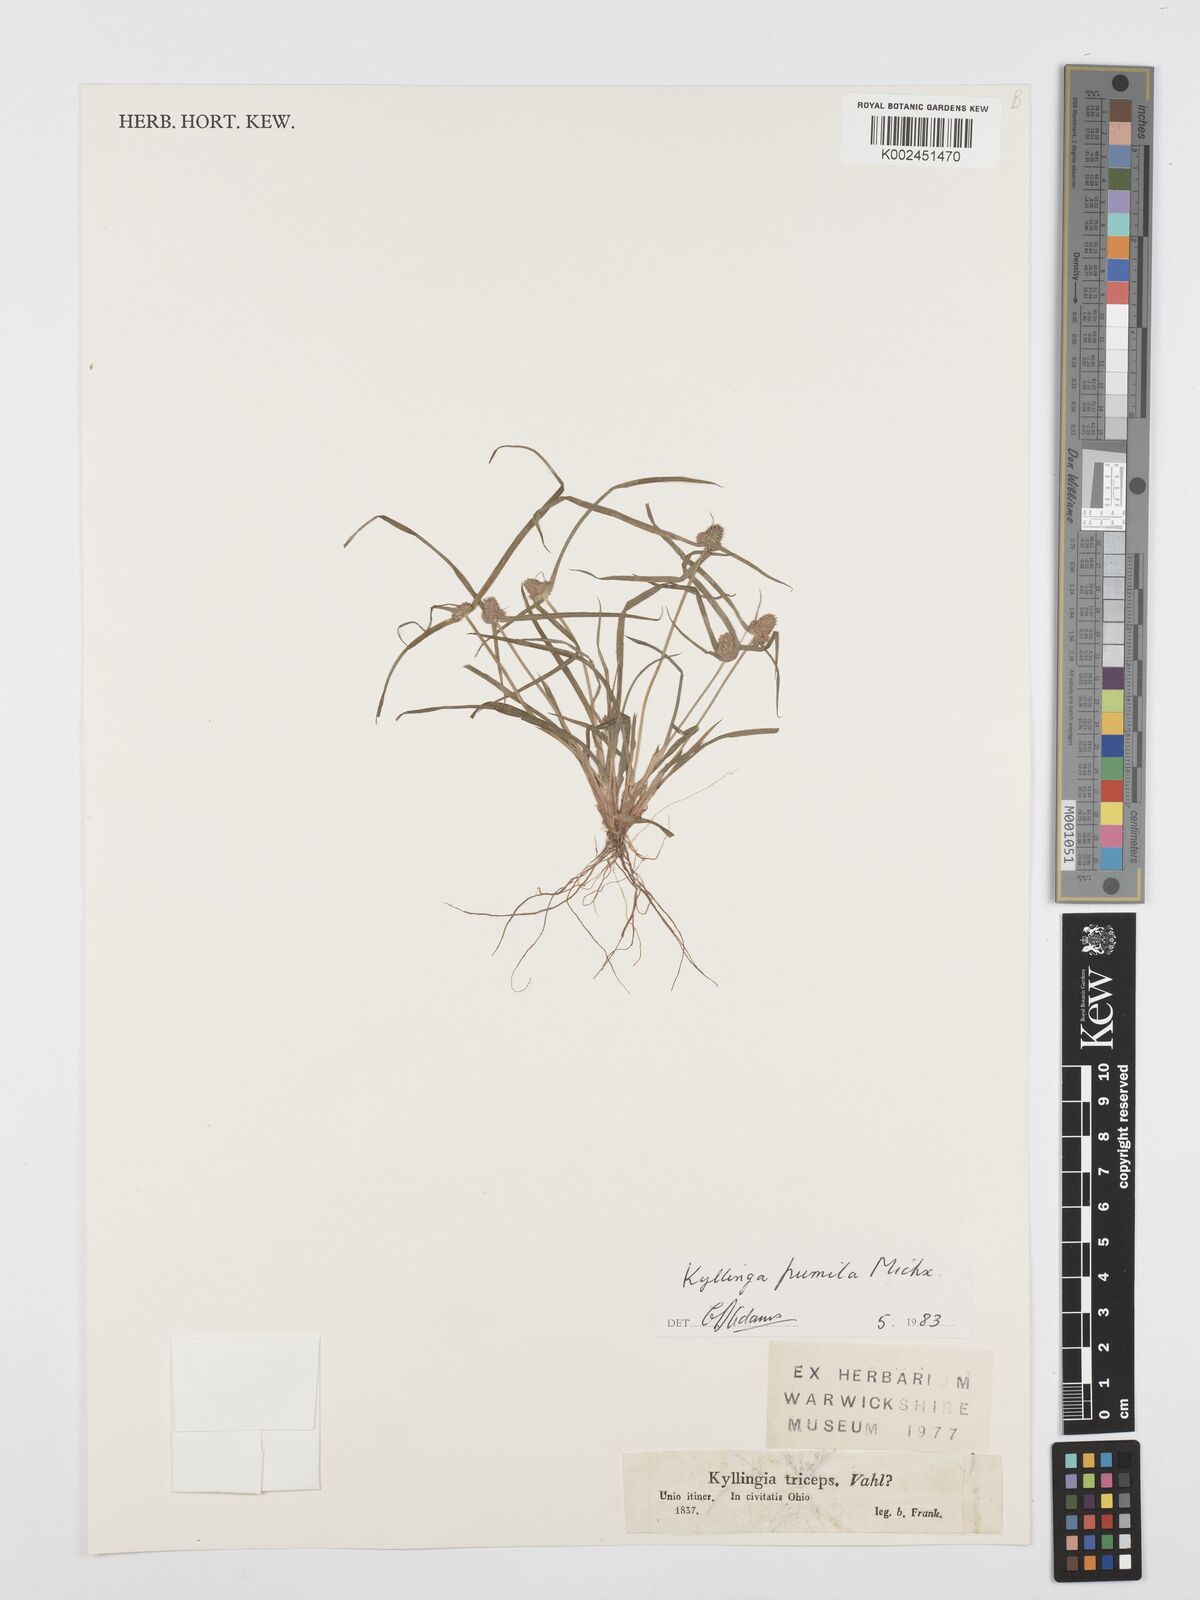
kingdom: Plantae
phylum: Tracheophyta
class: Liliopsida
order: Poales
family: Cyperaceae
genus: Cyperus
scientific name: Cyperus
